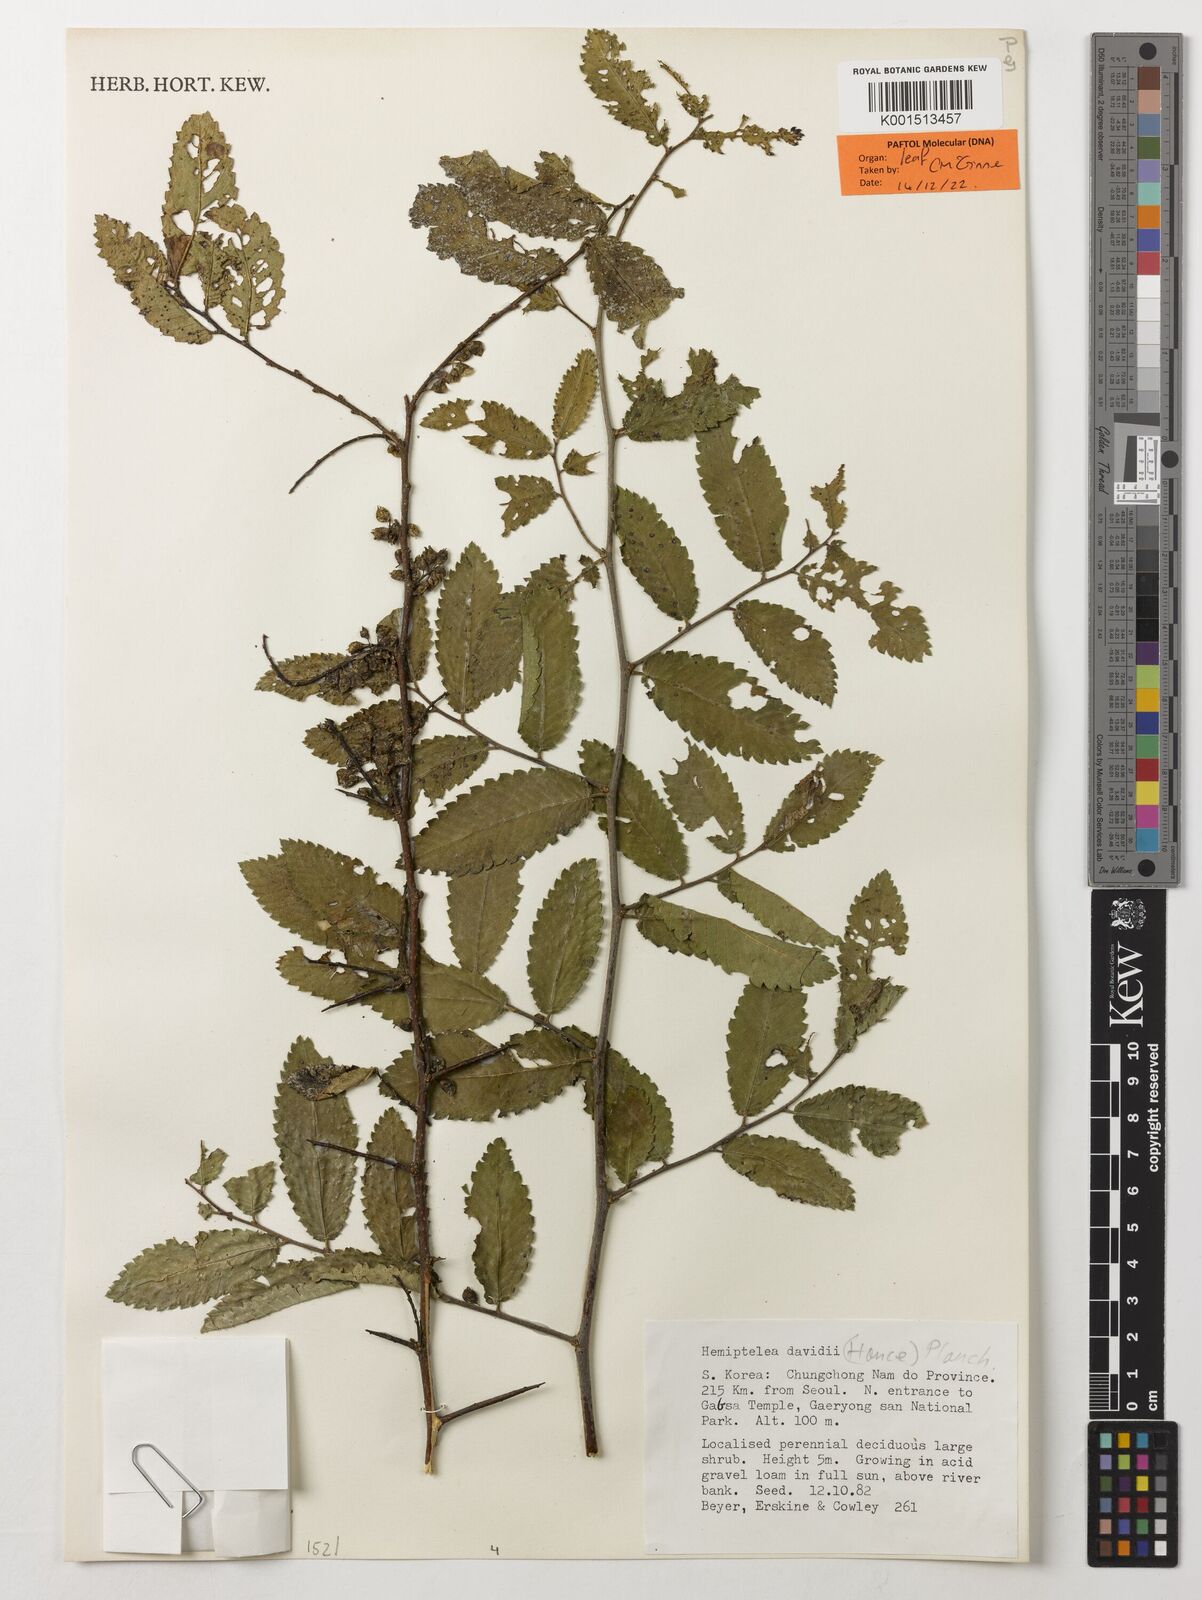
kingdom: Plantae
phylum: Tracheophyta
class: Magnoliopsida
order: Rosales
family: Ulmaceae
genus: Hemiptelea
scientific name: Hemiptelea davidii
